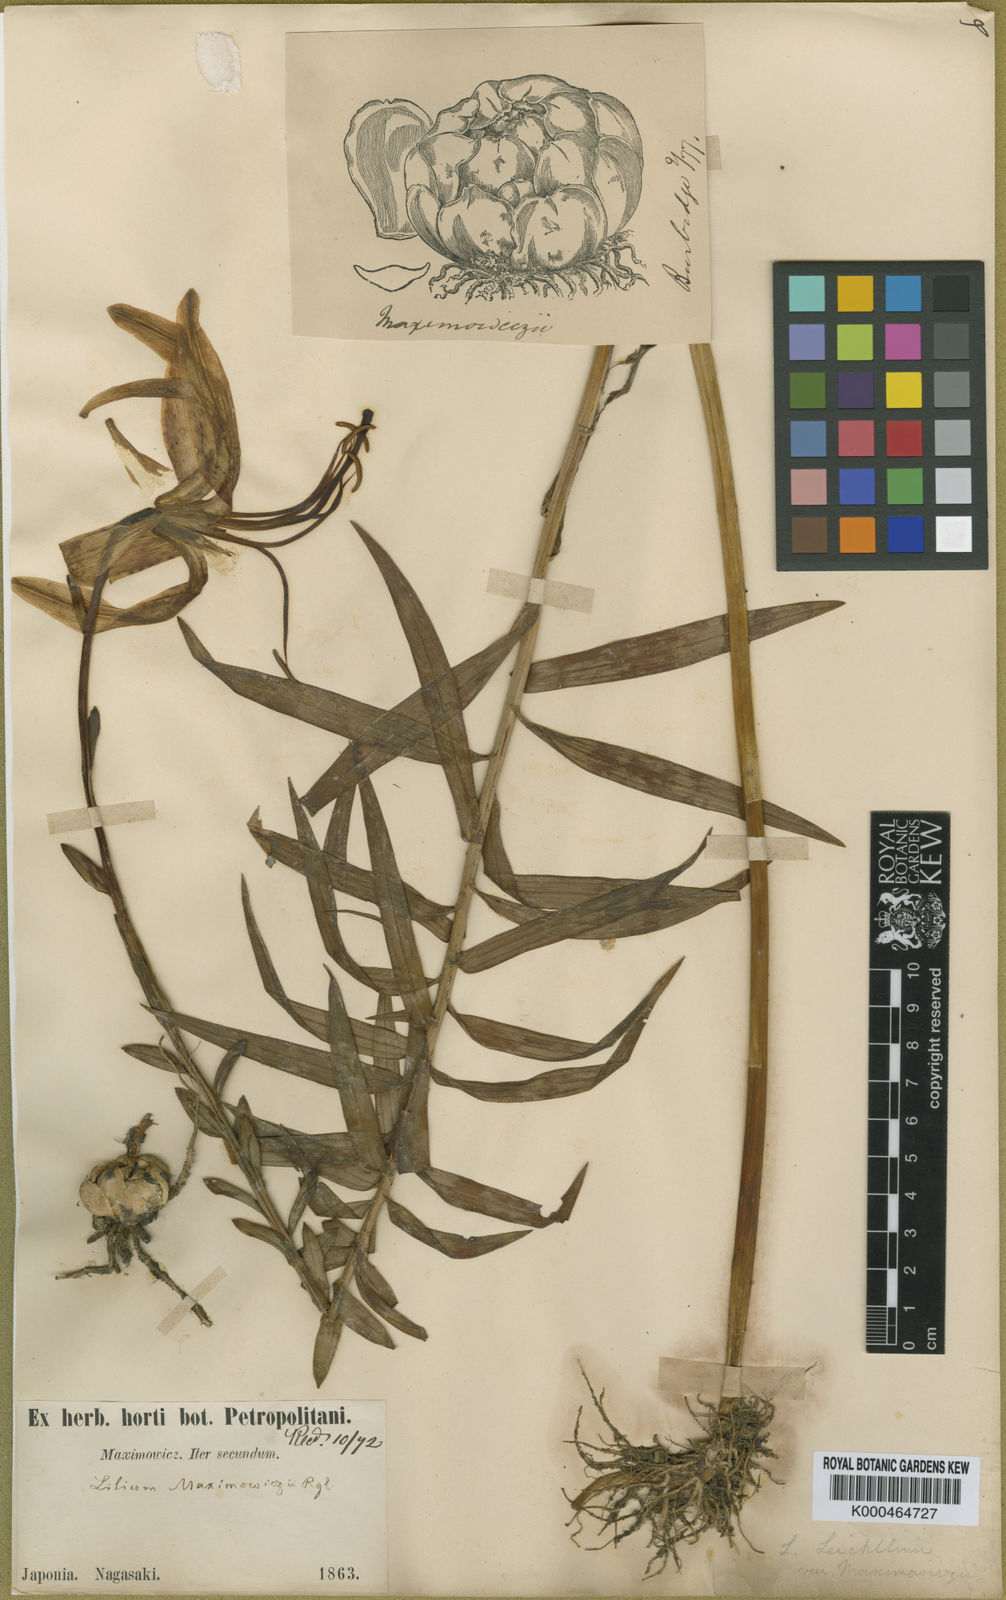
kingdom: Plantae
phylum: Tracheophyta
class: Liliopsida
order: Liliales
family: Liliaceae
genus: Lilium
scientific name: Lilium leichtlinii
